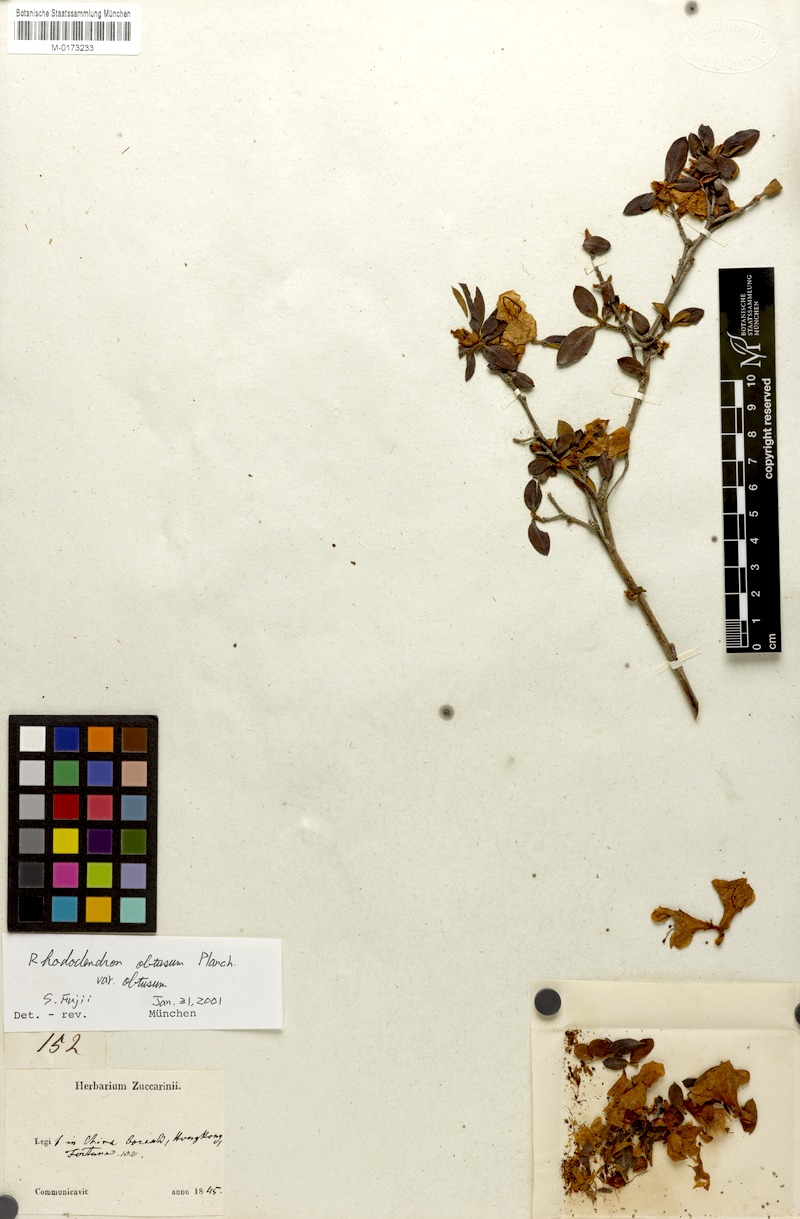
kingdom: Plantae
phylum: Tracheophyta
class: Magnoliopsida
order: Ericales
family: Ericaceae
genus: Rhododendron
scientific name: Rhododendron indicum
